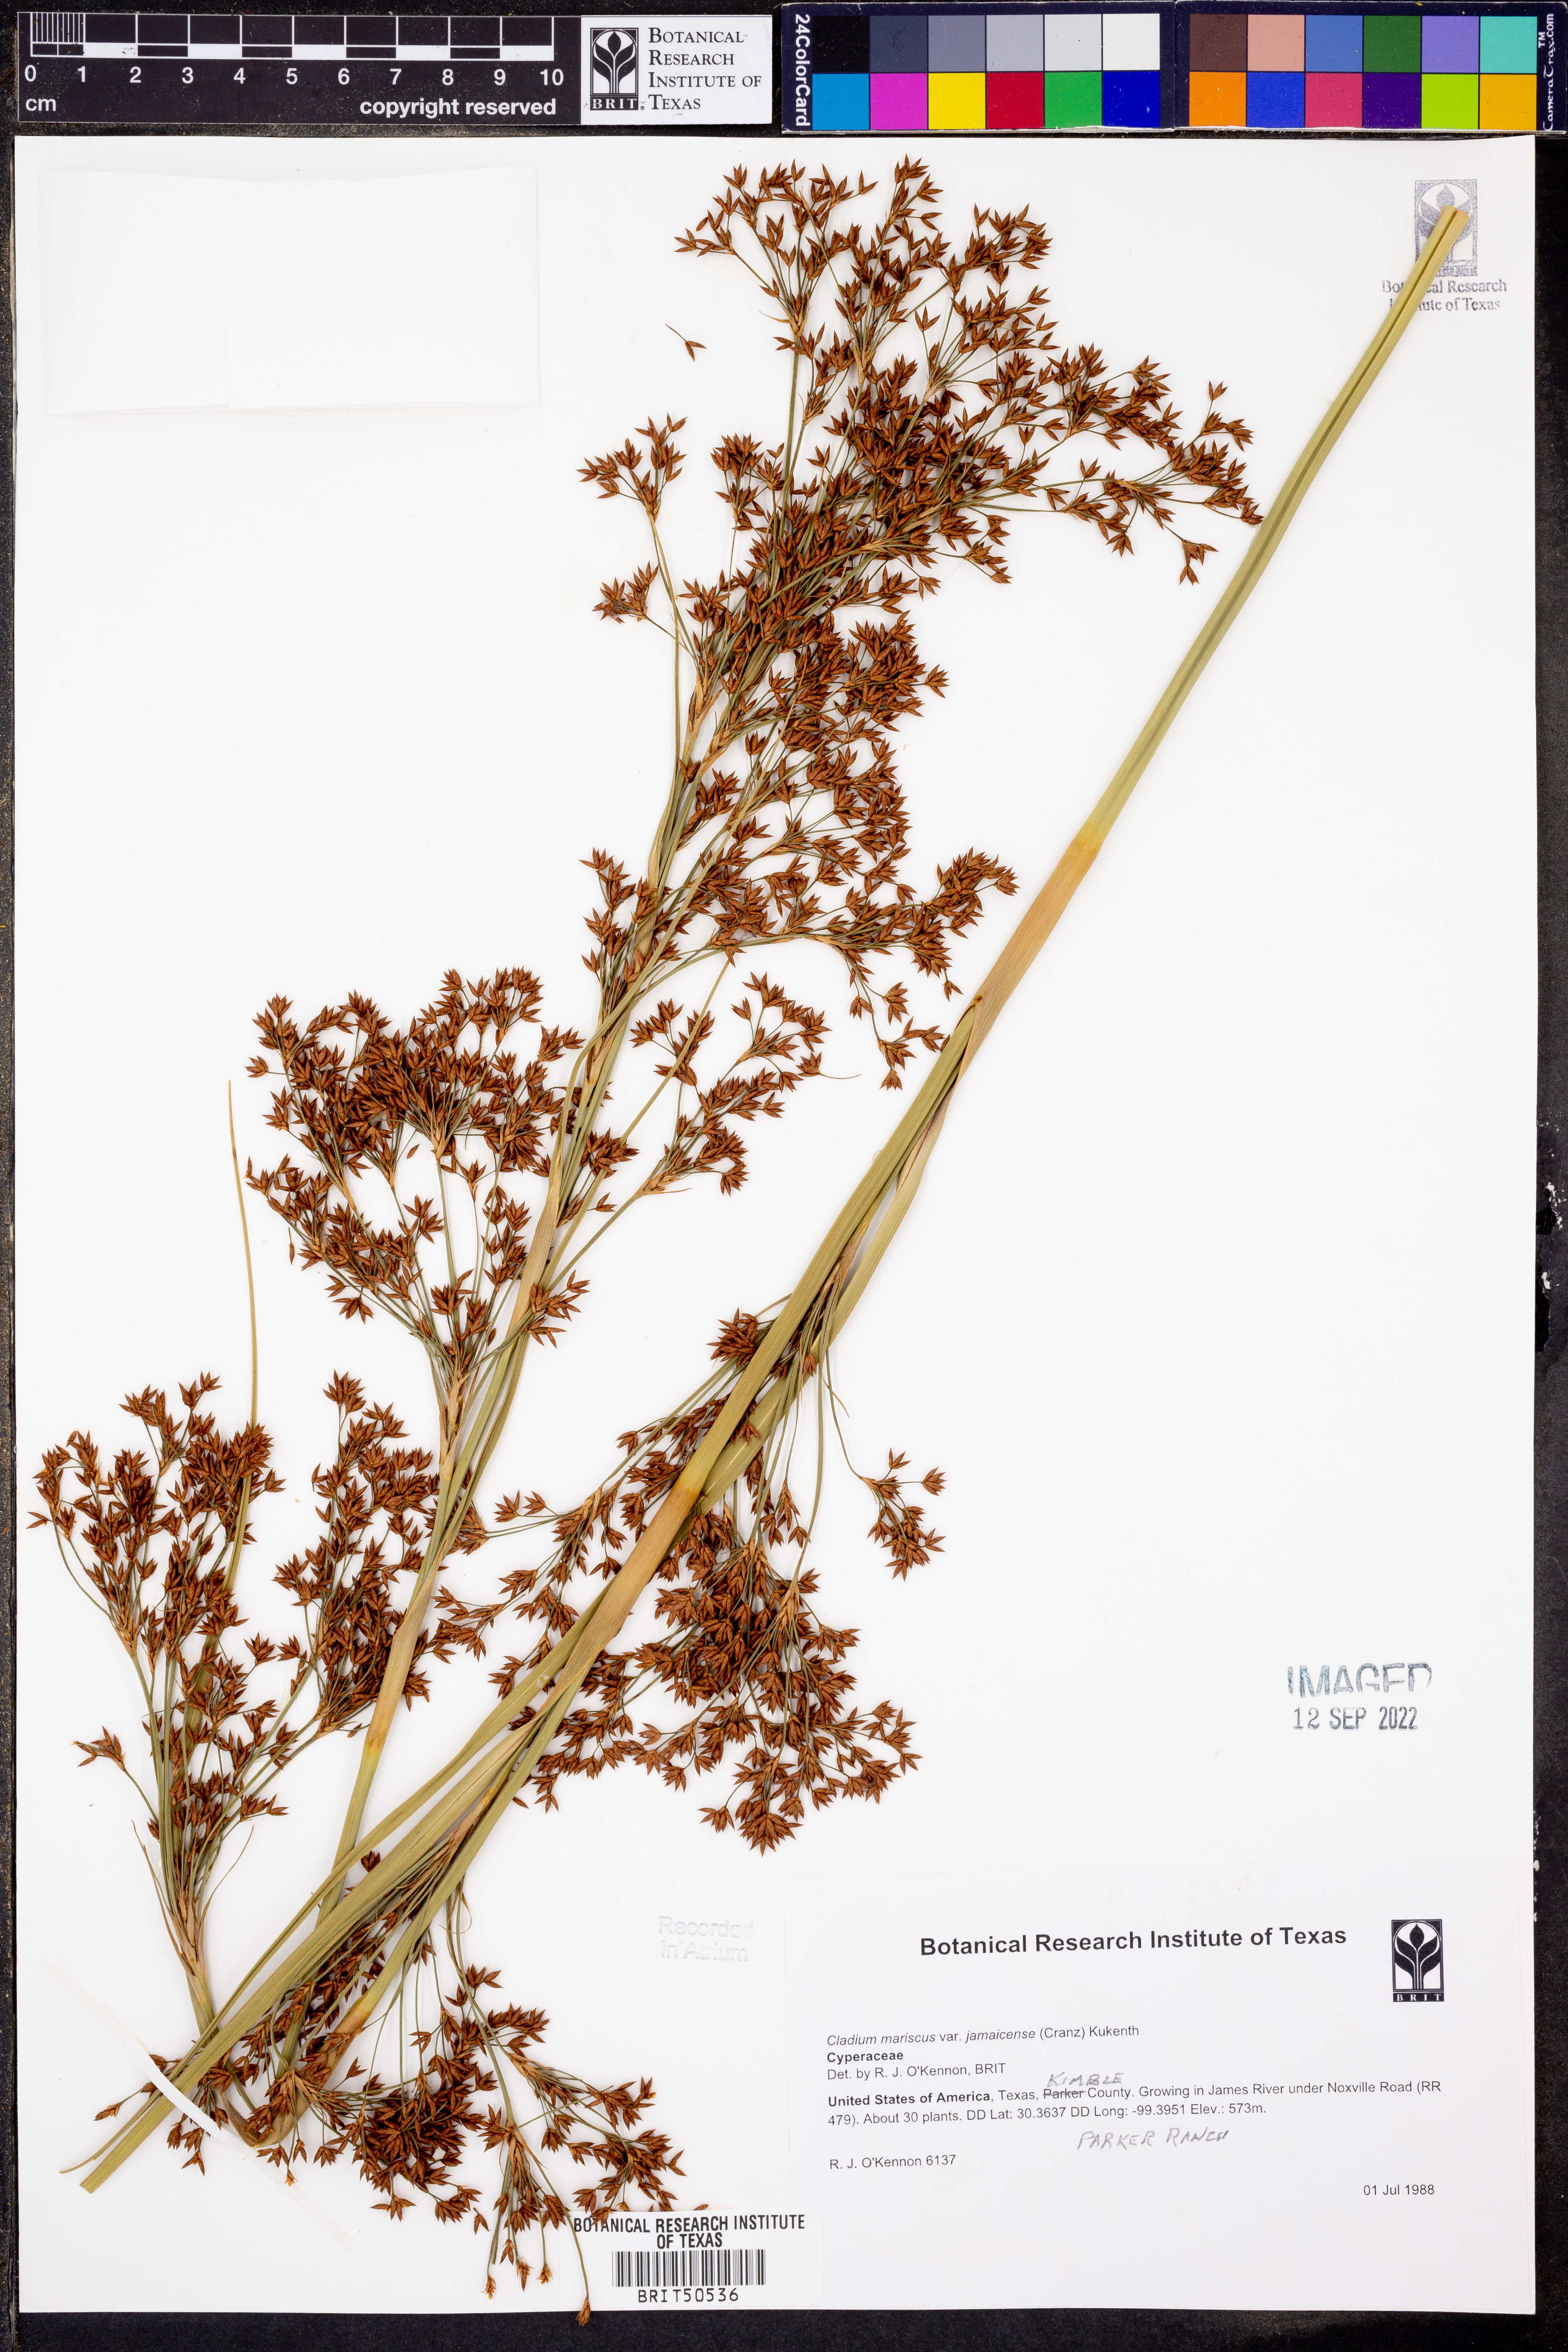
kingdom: Plantae
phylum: Tracheophyta
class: Liliopsida
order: Poales
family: Cyperaceae
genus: Cladium
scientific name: Cladium mariscus
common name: Great fen-sedge
